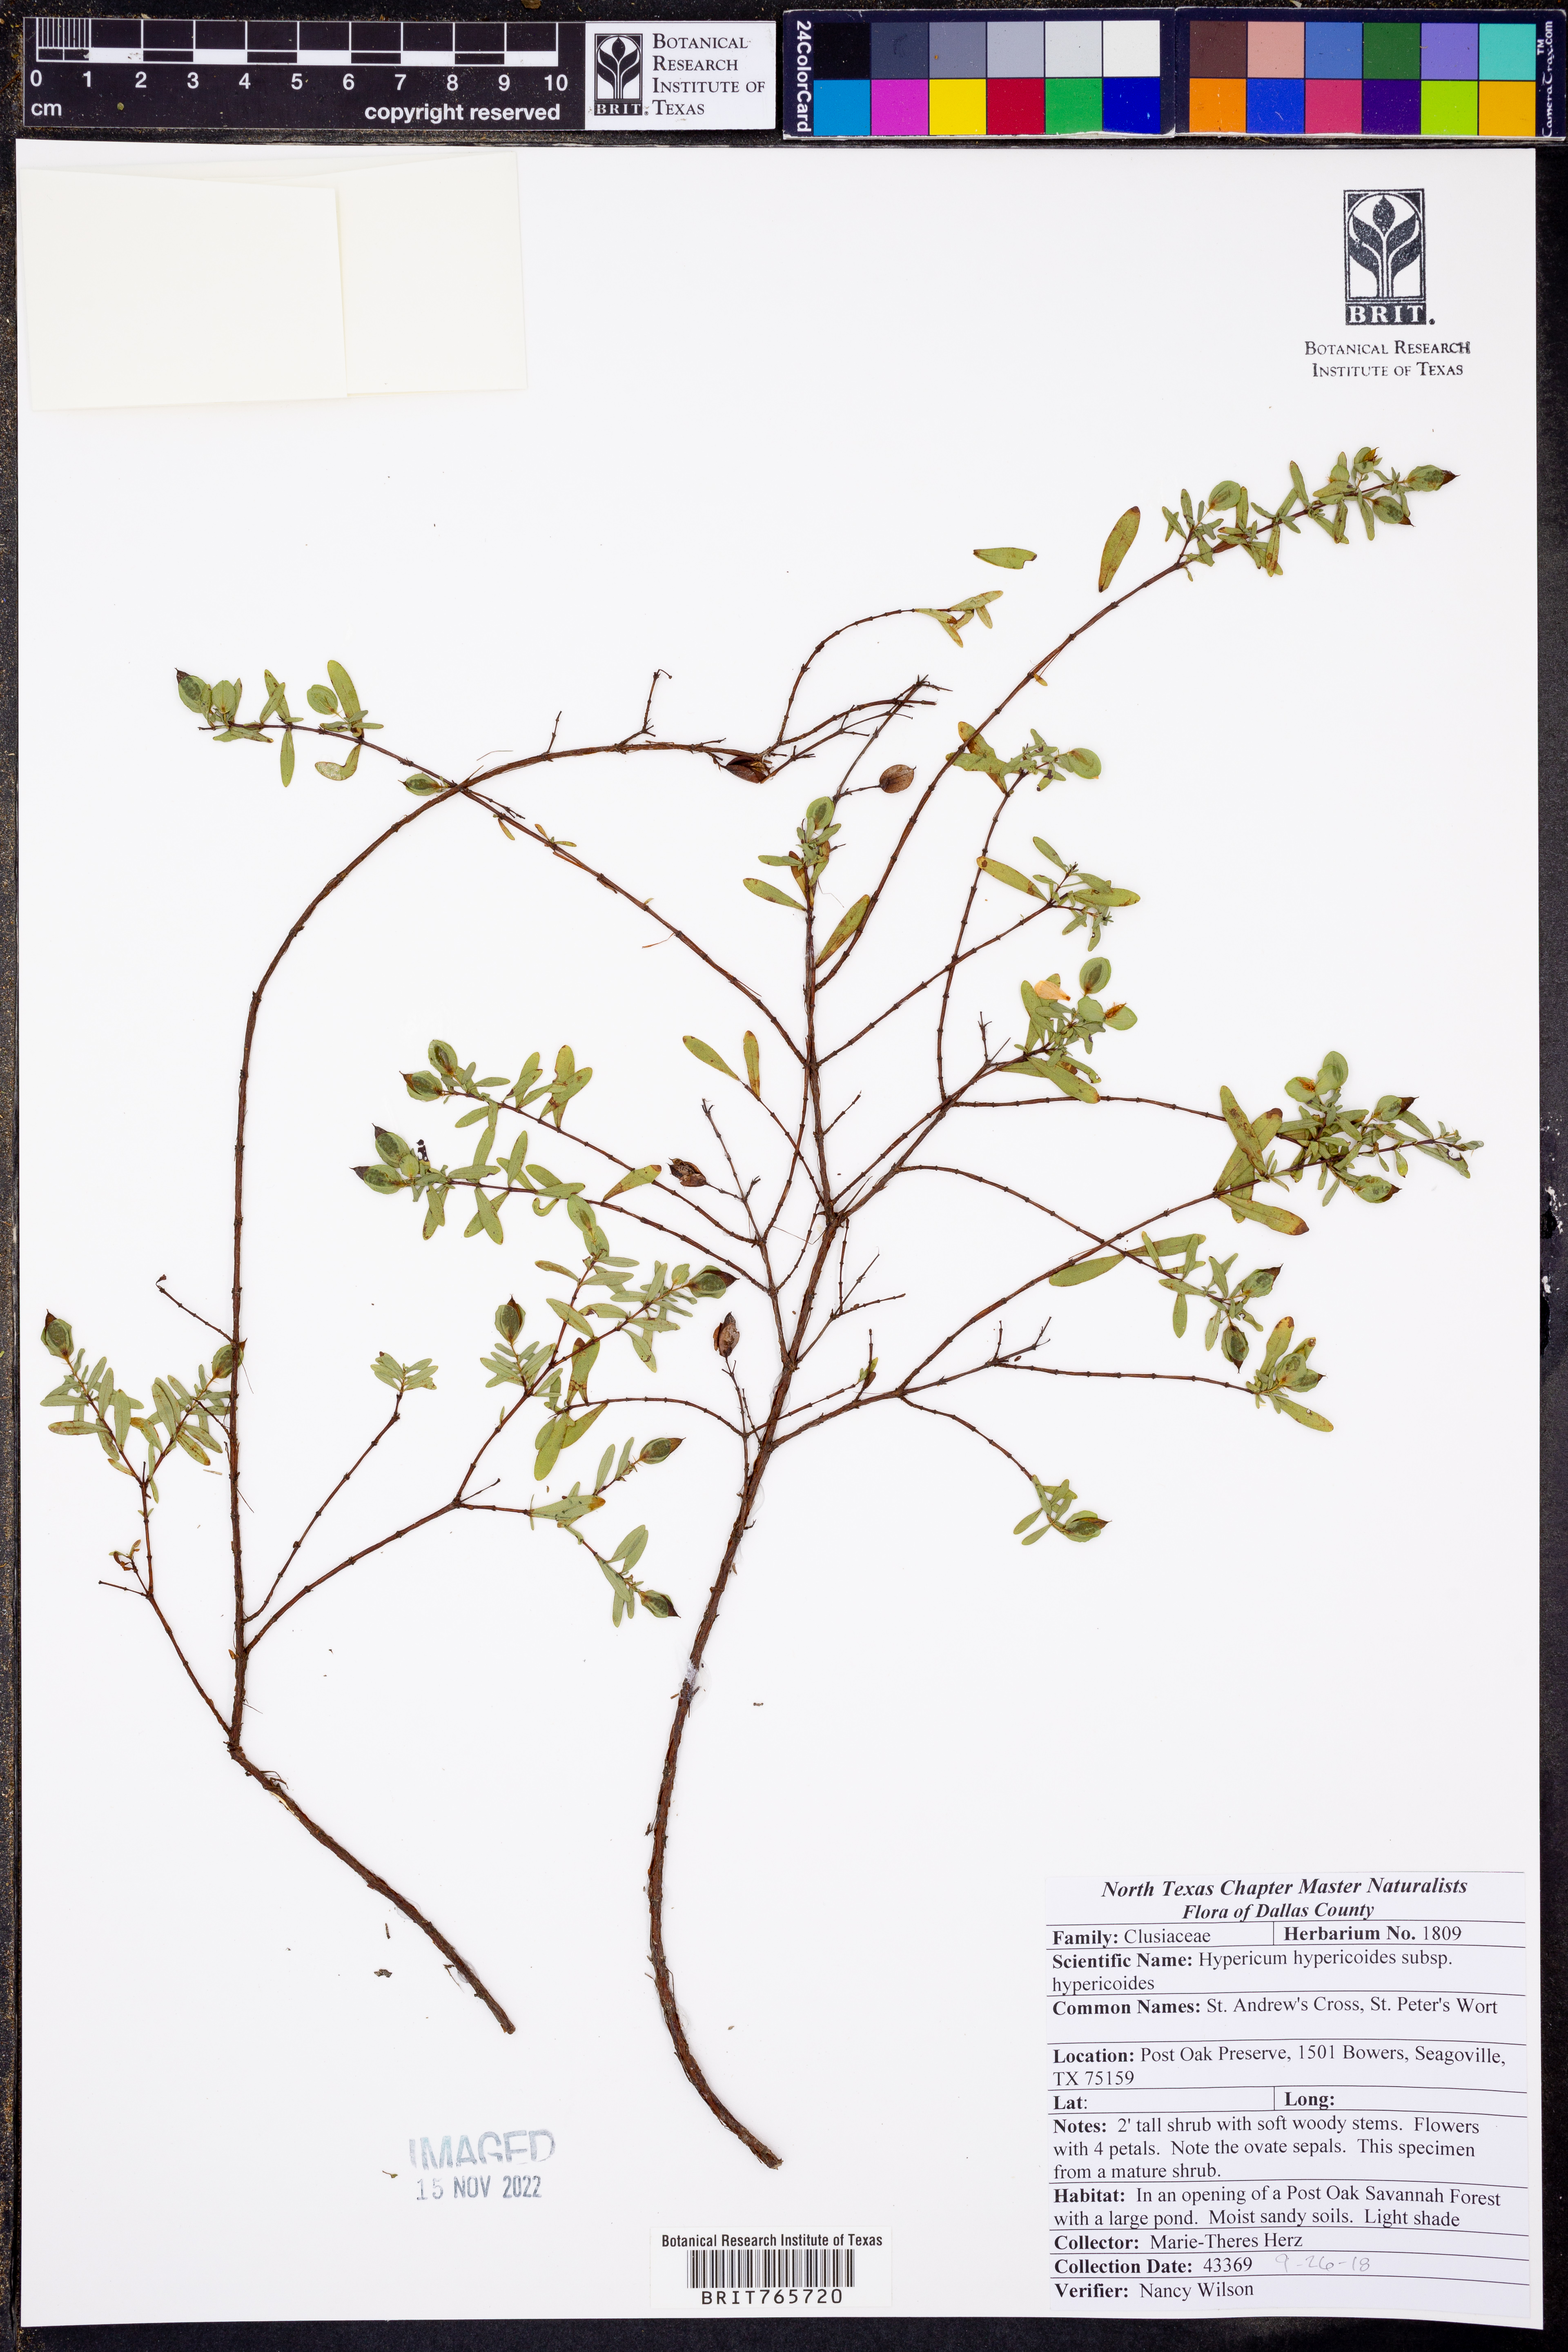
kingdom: Plantae
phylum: Tracheophyta
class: Magnoliopsida
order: Malpighiales
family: Hypericaceae
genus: Hypericum
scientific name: Hypericum hypericoides
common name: St. andrew's cross
